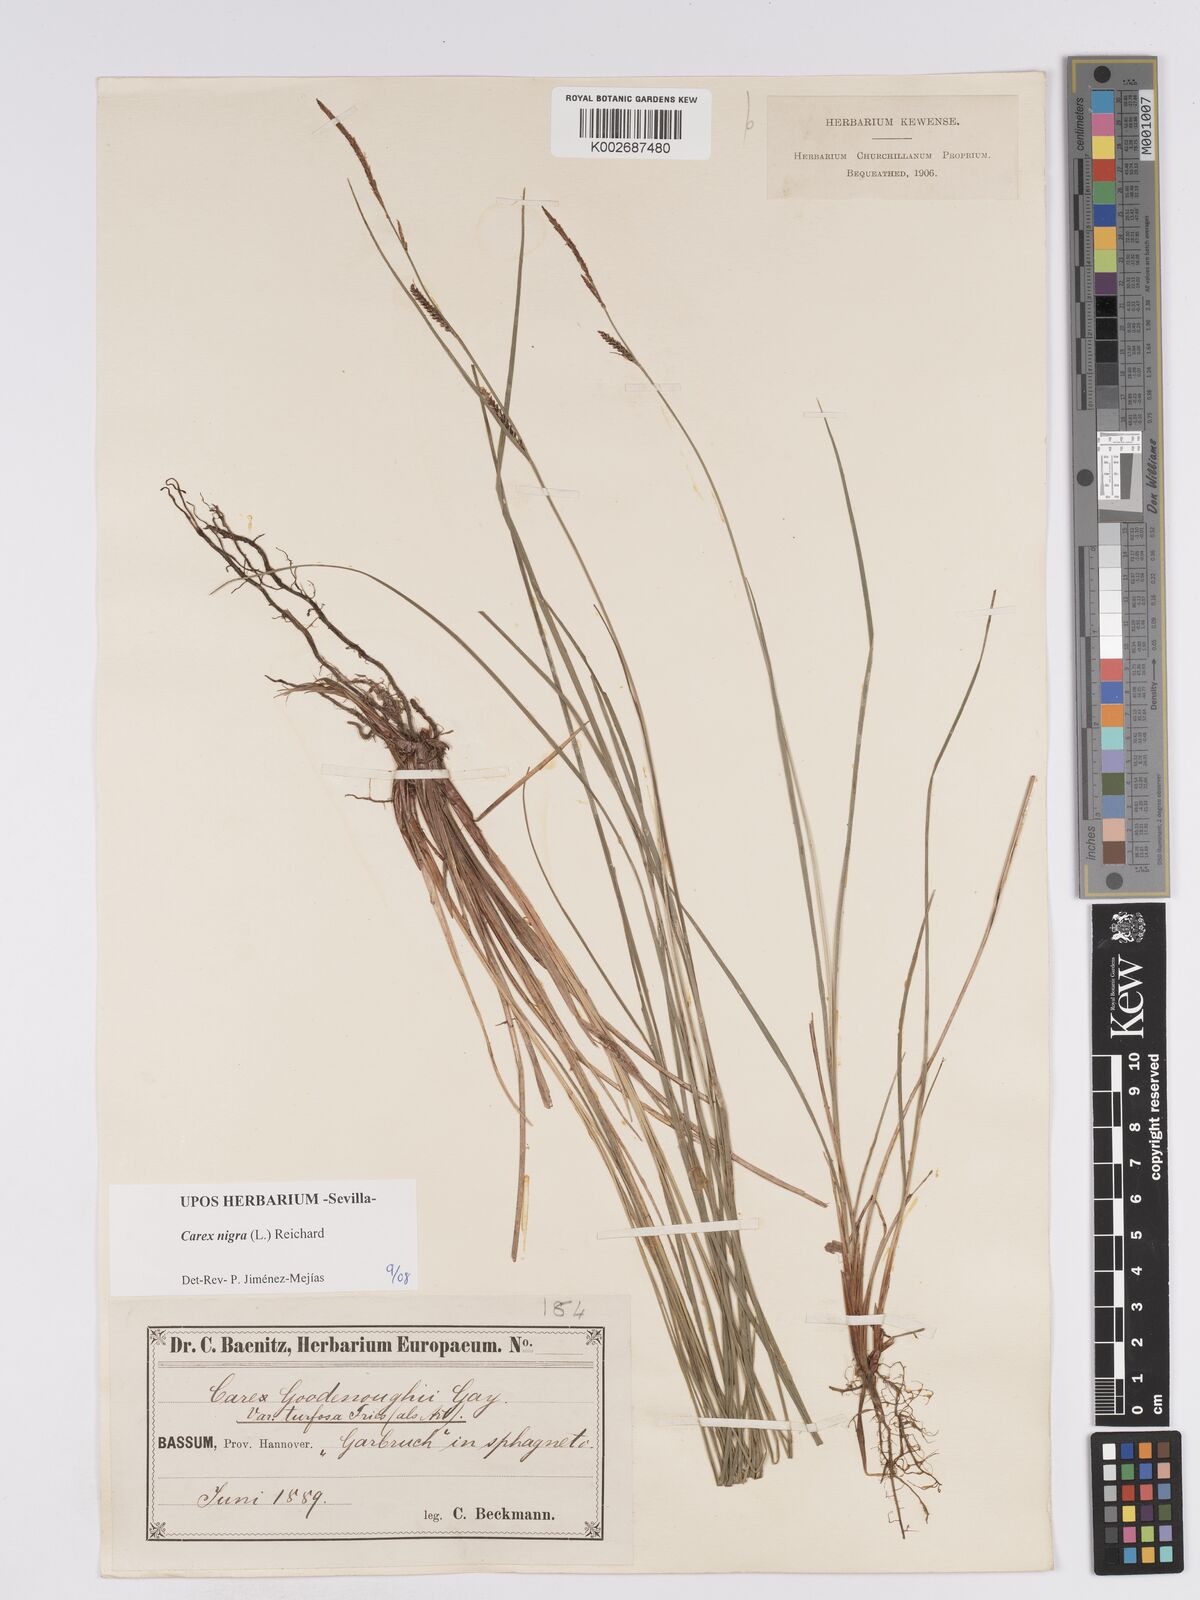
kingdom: Plantae
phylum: Tracheophyta
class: Liliopsida
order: Poales
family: Cyperaceae
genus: Carex
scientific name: Carex nigra
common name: Common sedge
